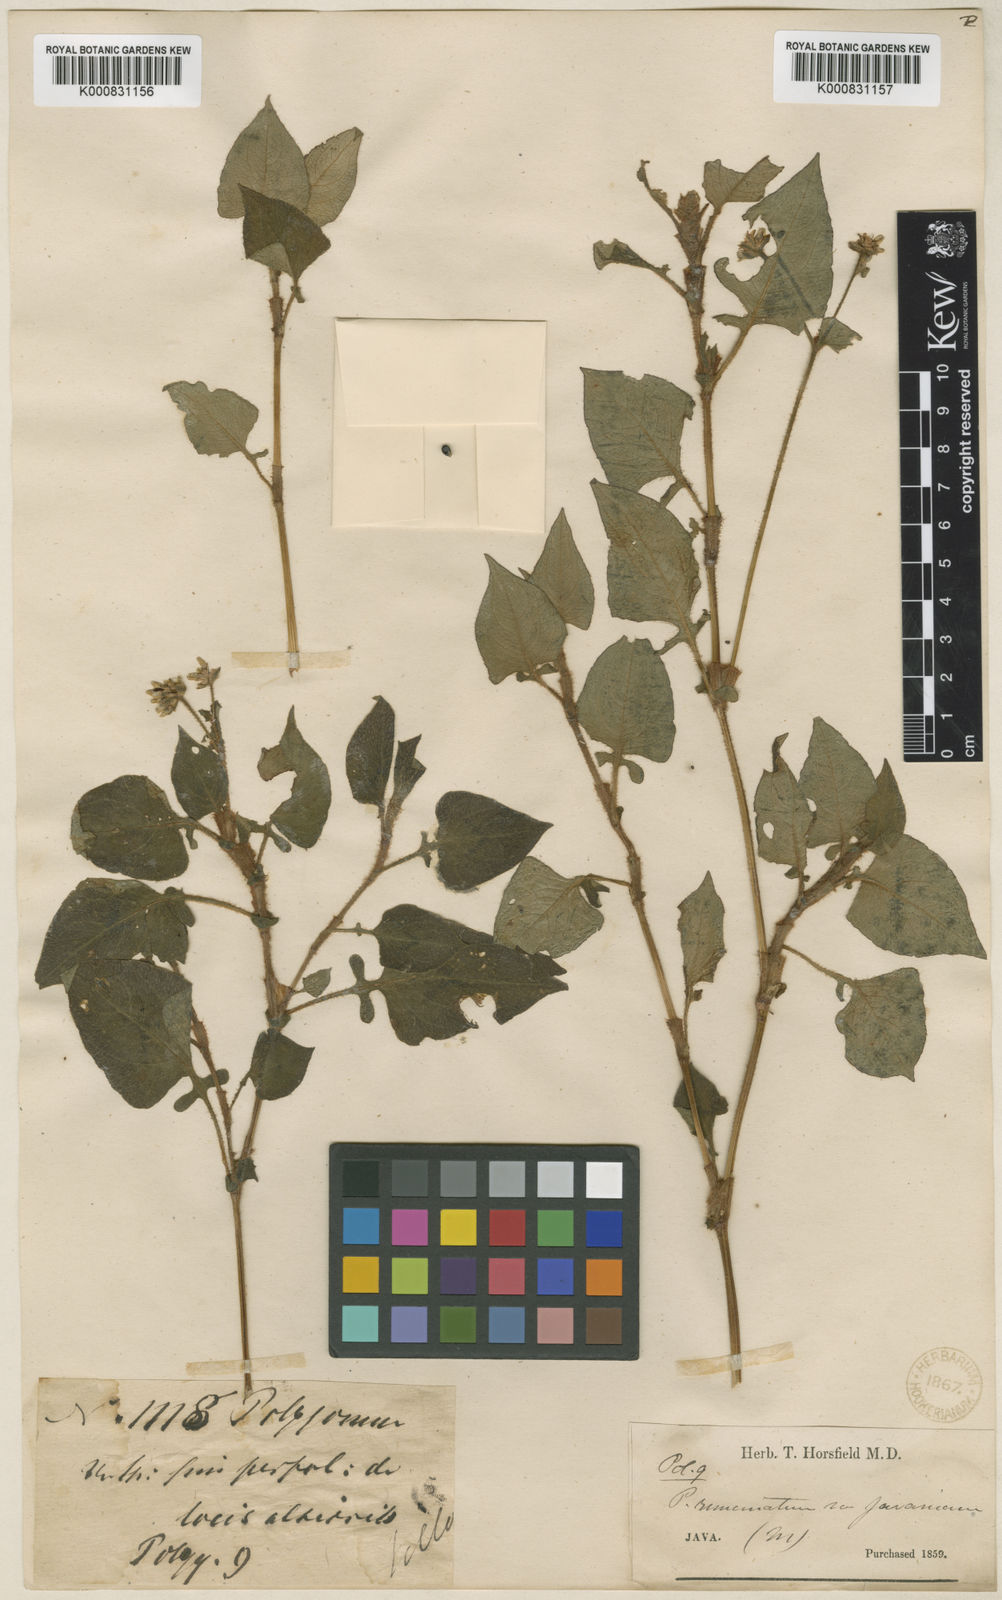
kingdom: Plantae
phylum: Tracheophyta
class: Magnoliopsida
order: Caryophyllales
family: Polygonaceae
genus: Persicaria
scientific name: Persicaria runcinata
